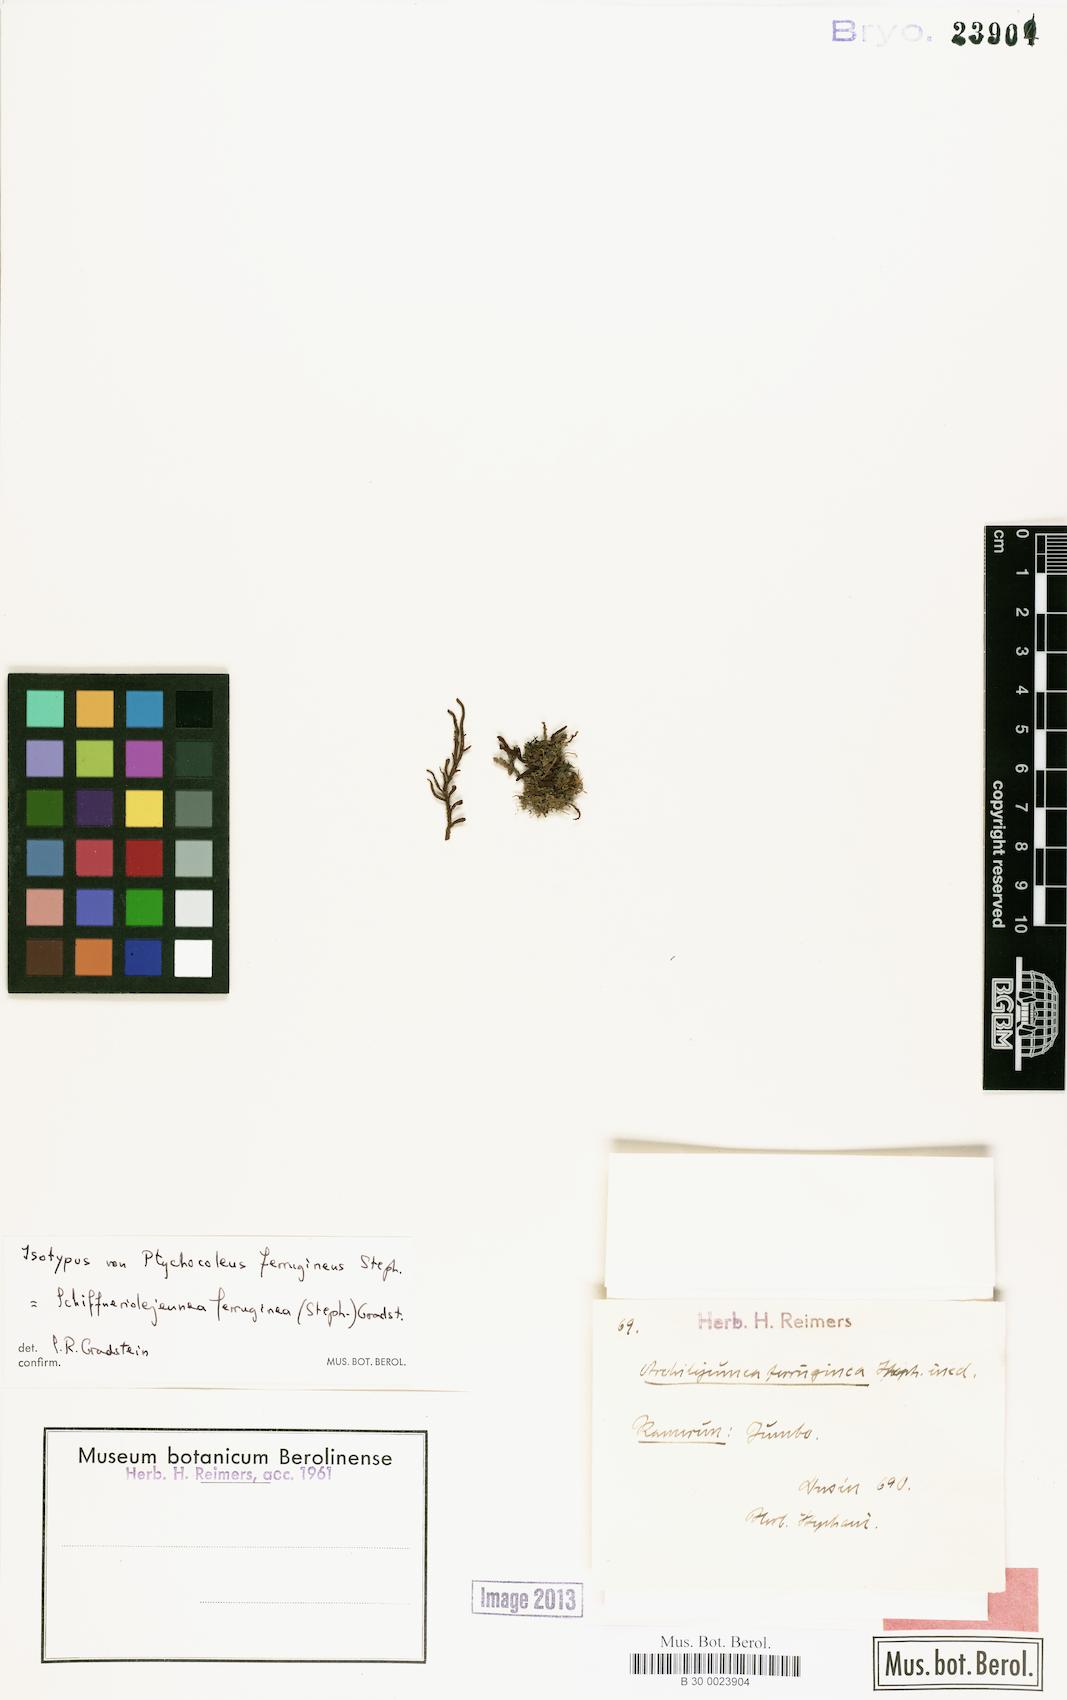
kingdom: Plantae
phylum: Marchantiophyta
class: Jungermanniopsida
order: Porellales
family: Lejeuneaceae
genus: Schiffneriolejeunea
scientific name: Schiffneriolejeunea ferruginea
